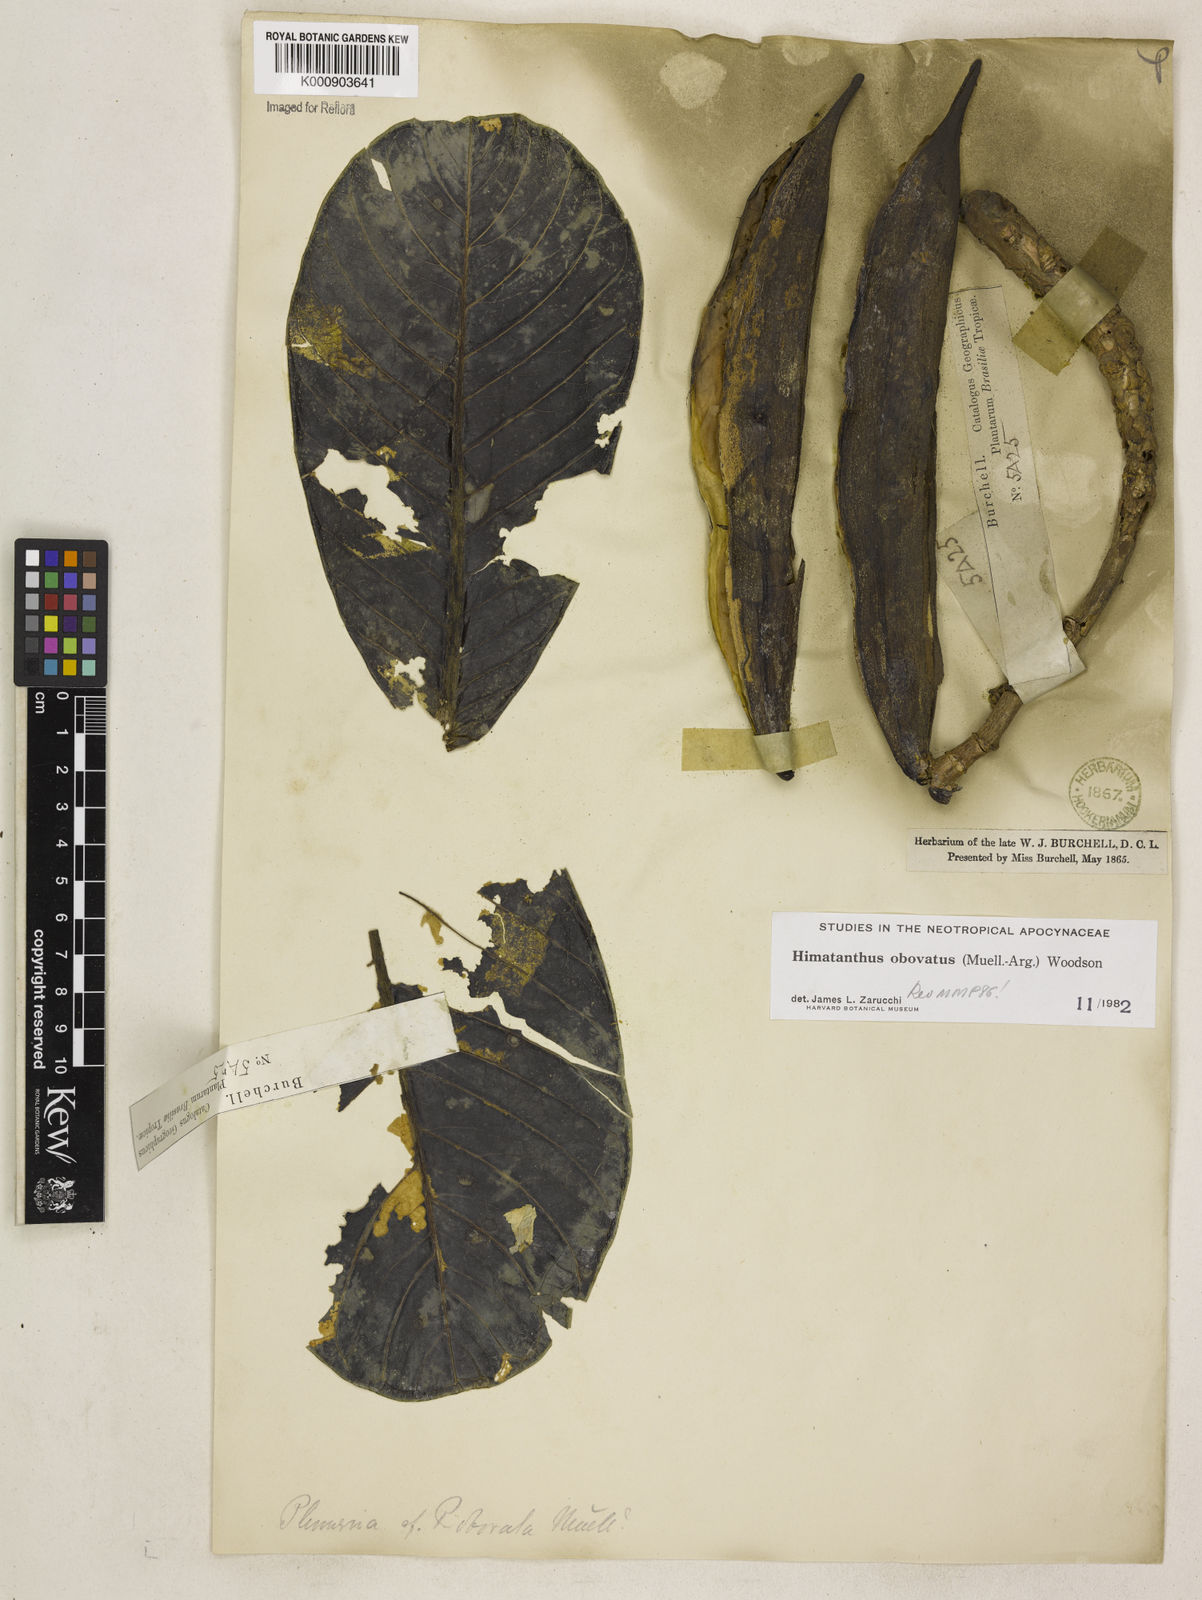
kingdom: Plantae
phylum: Tracheophyta
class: Magnoliopsida
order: Gentianales
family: Apocynaceae
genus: Himatanthus
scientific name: Himatanthus
